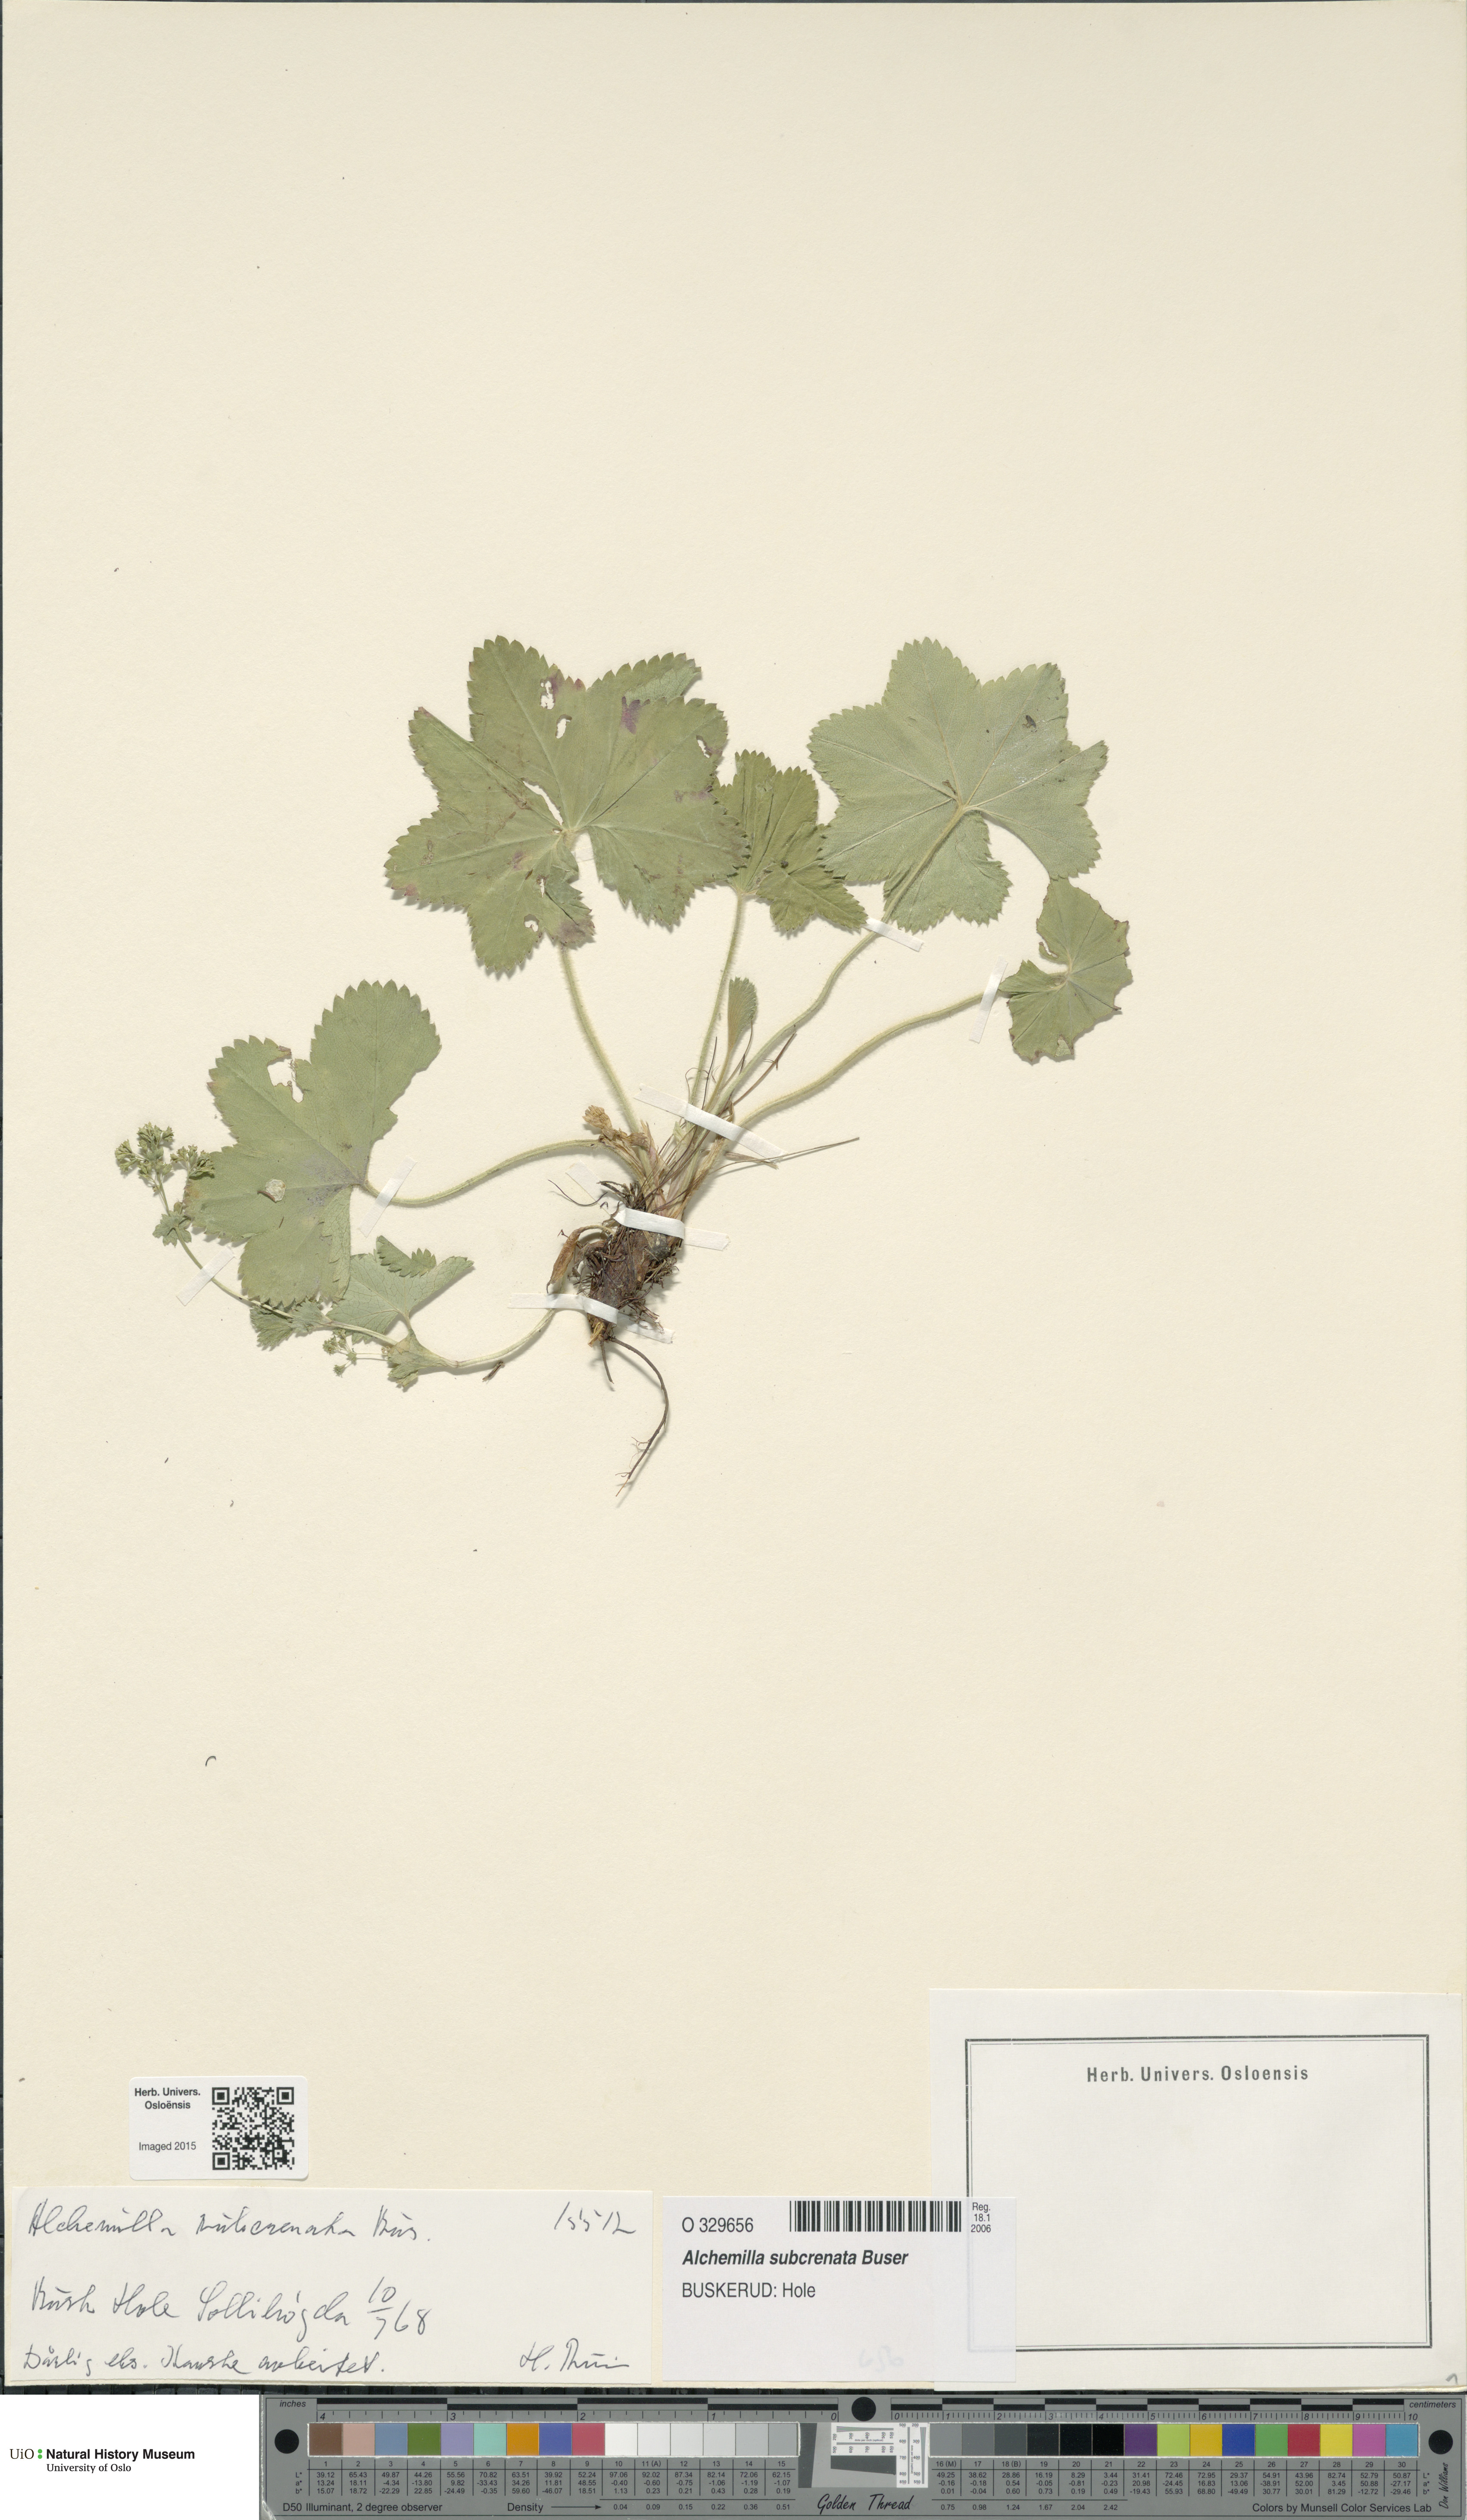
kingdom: Plantae
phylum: Tracheophyta
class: Magnoliopsida
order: Rosales
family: Rosaceae
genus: Alchemilla
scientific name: Alchemilla subcrenata
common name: Broadtooth lady's mantle
